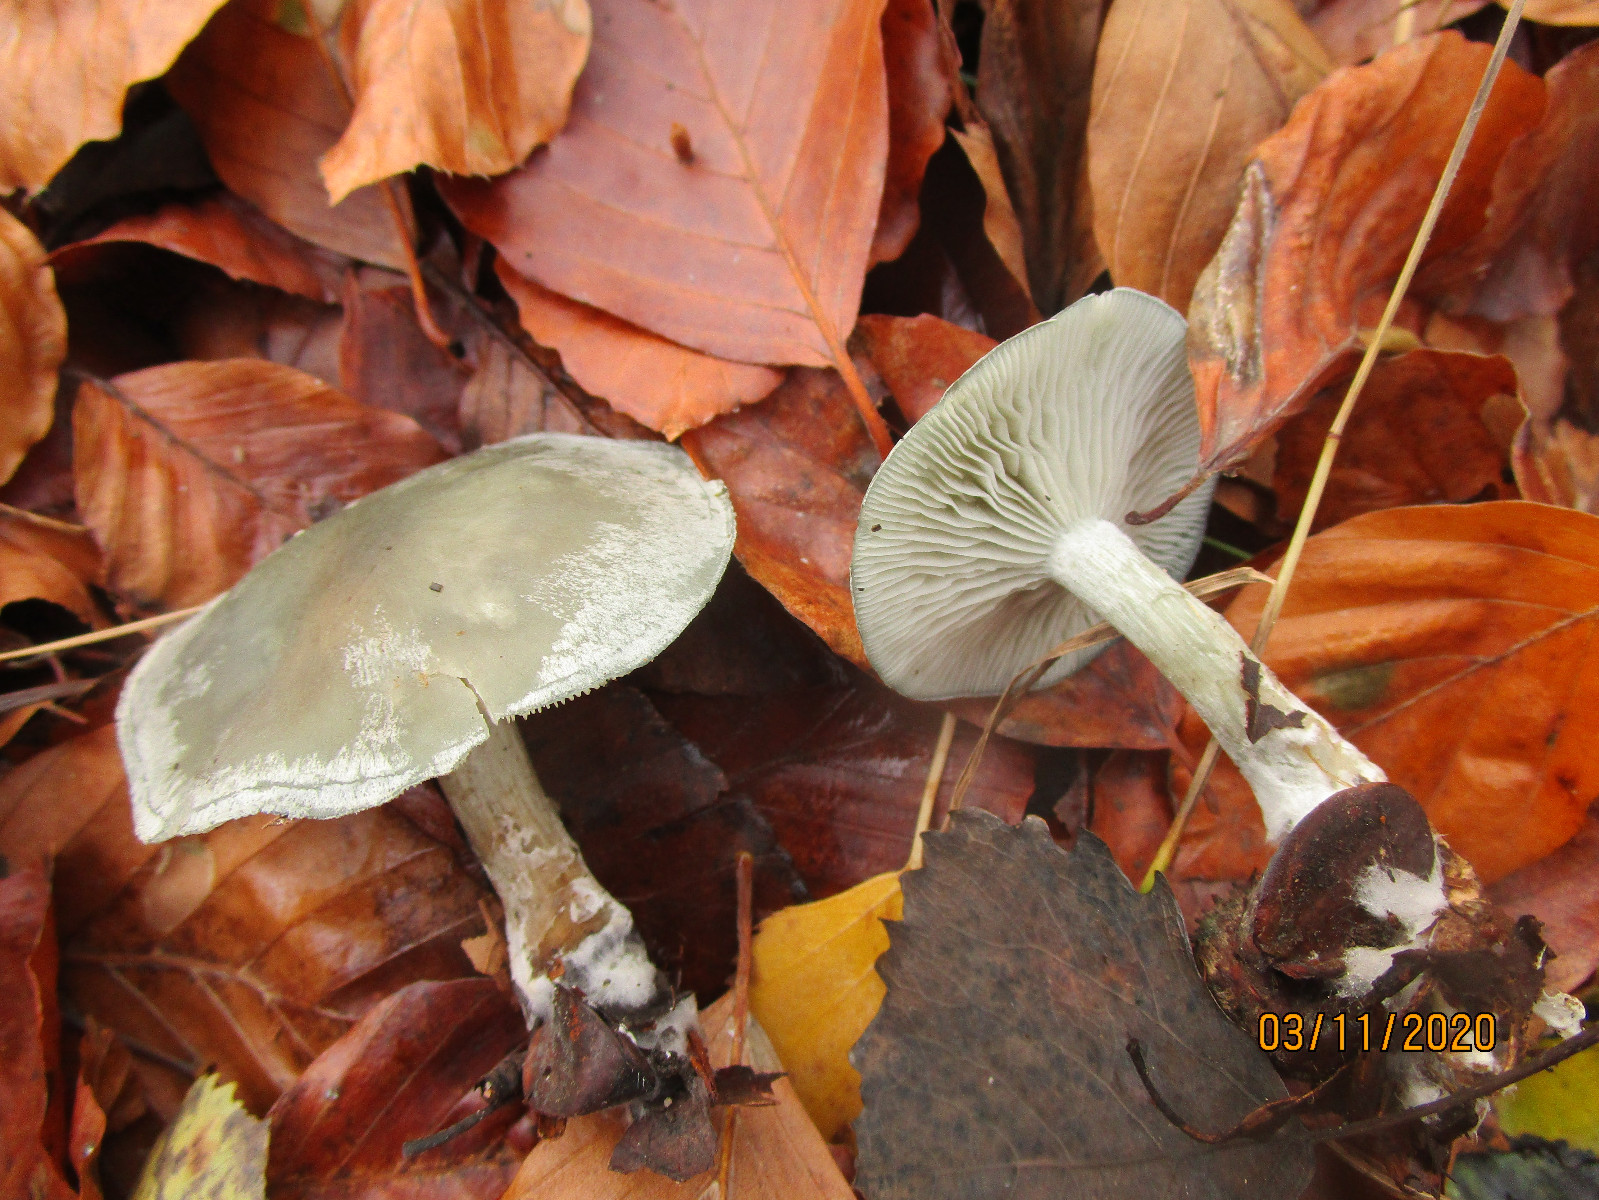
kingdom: Fungi
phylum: Basidiomycota
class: Agaricomycetes
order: Agaricales
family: Tricholomataceae
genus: Clitocybe
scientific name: Clitocybe odora
